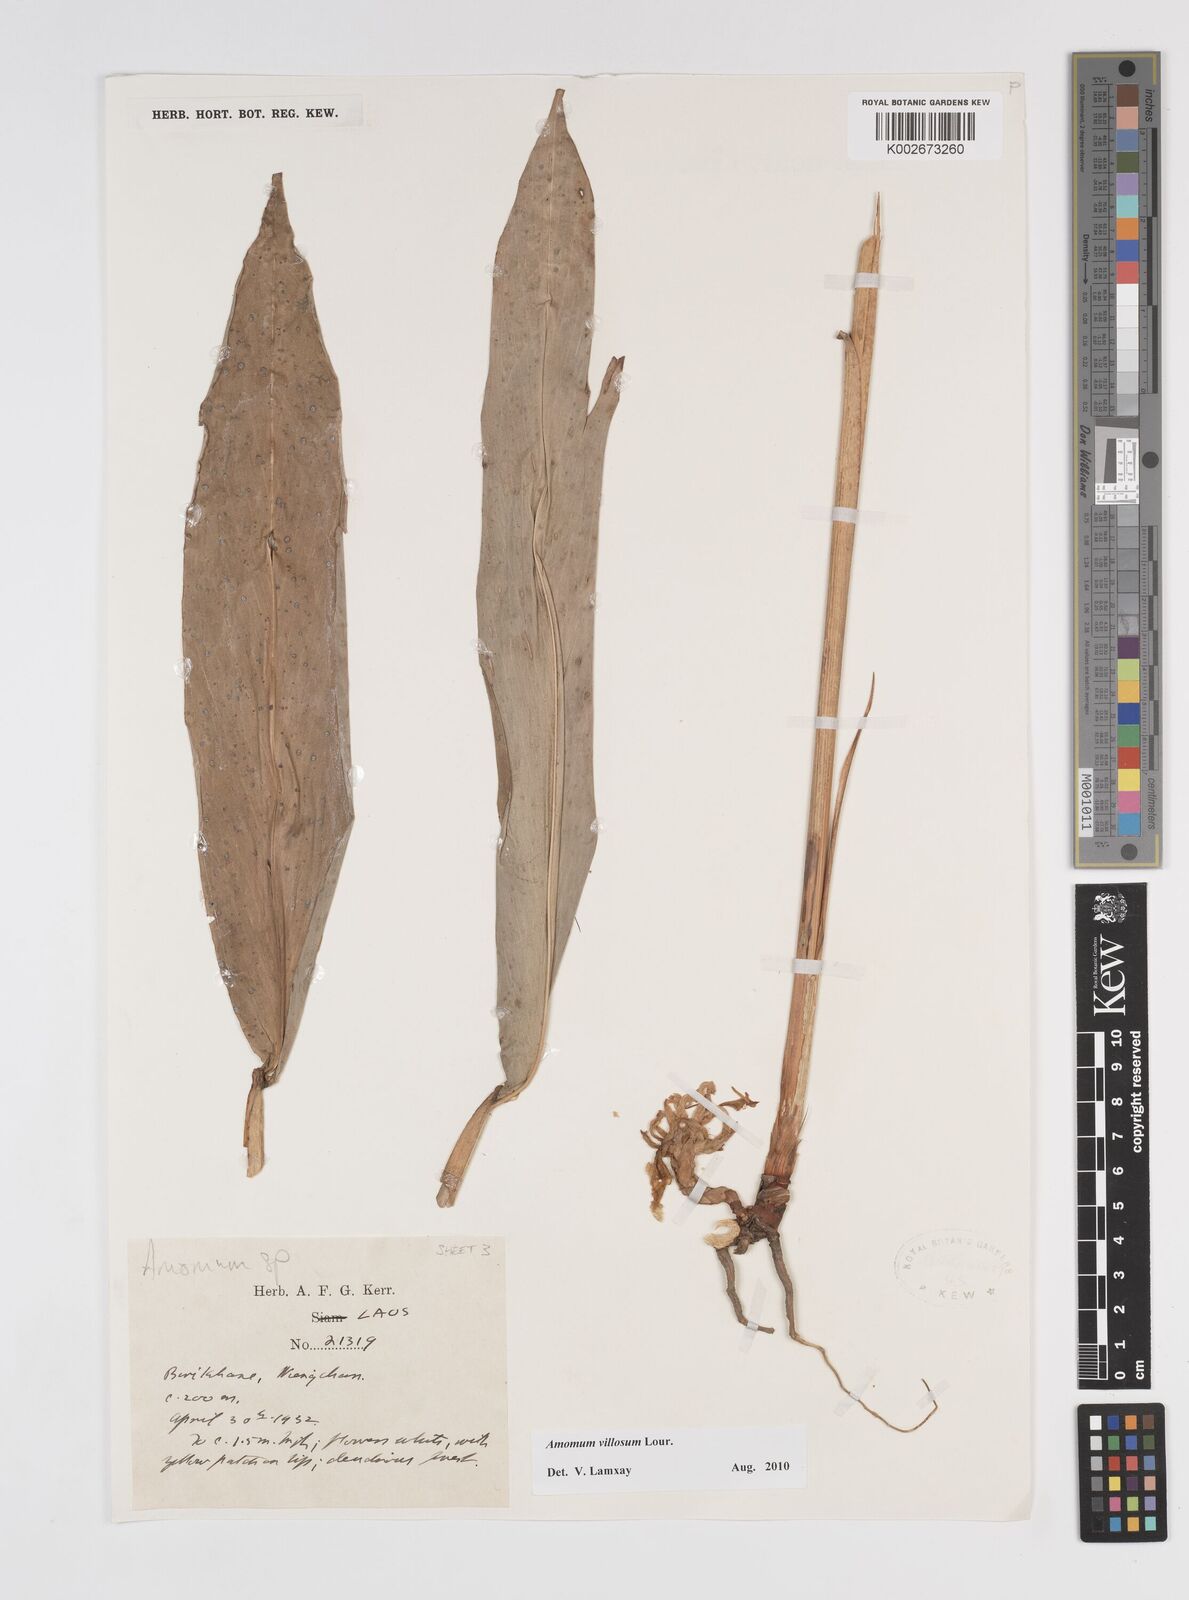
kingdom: Plantae
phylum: Tracheophyta
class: Liliopsida
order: Zingiberales
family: Zingiberaceae
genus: Wurfbainia
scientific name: Wurfbainia villosa
